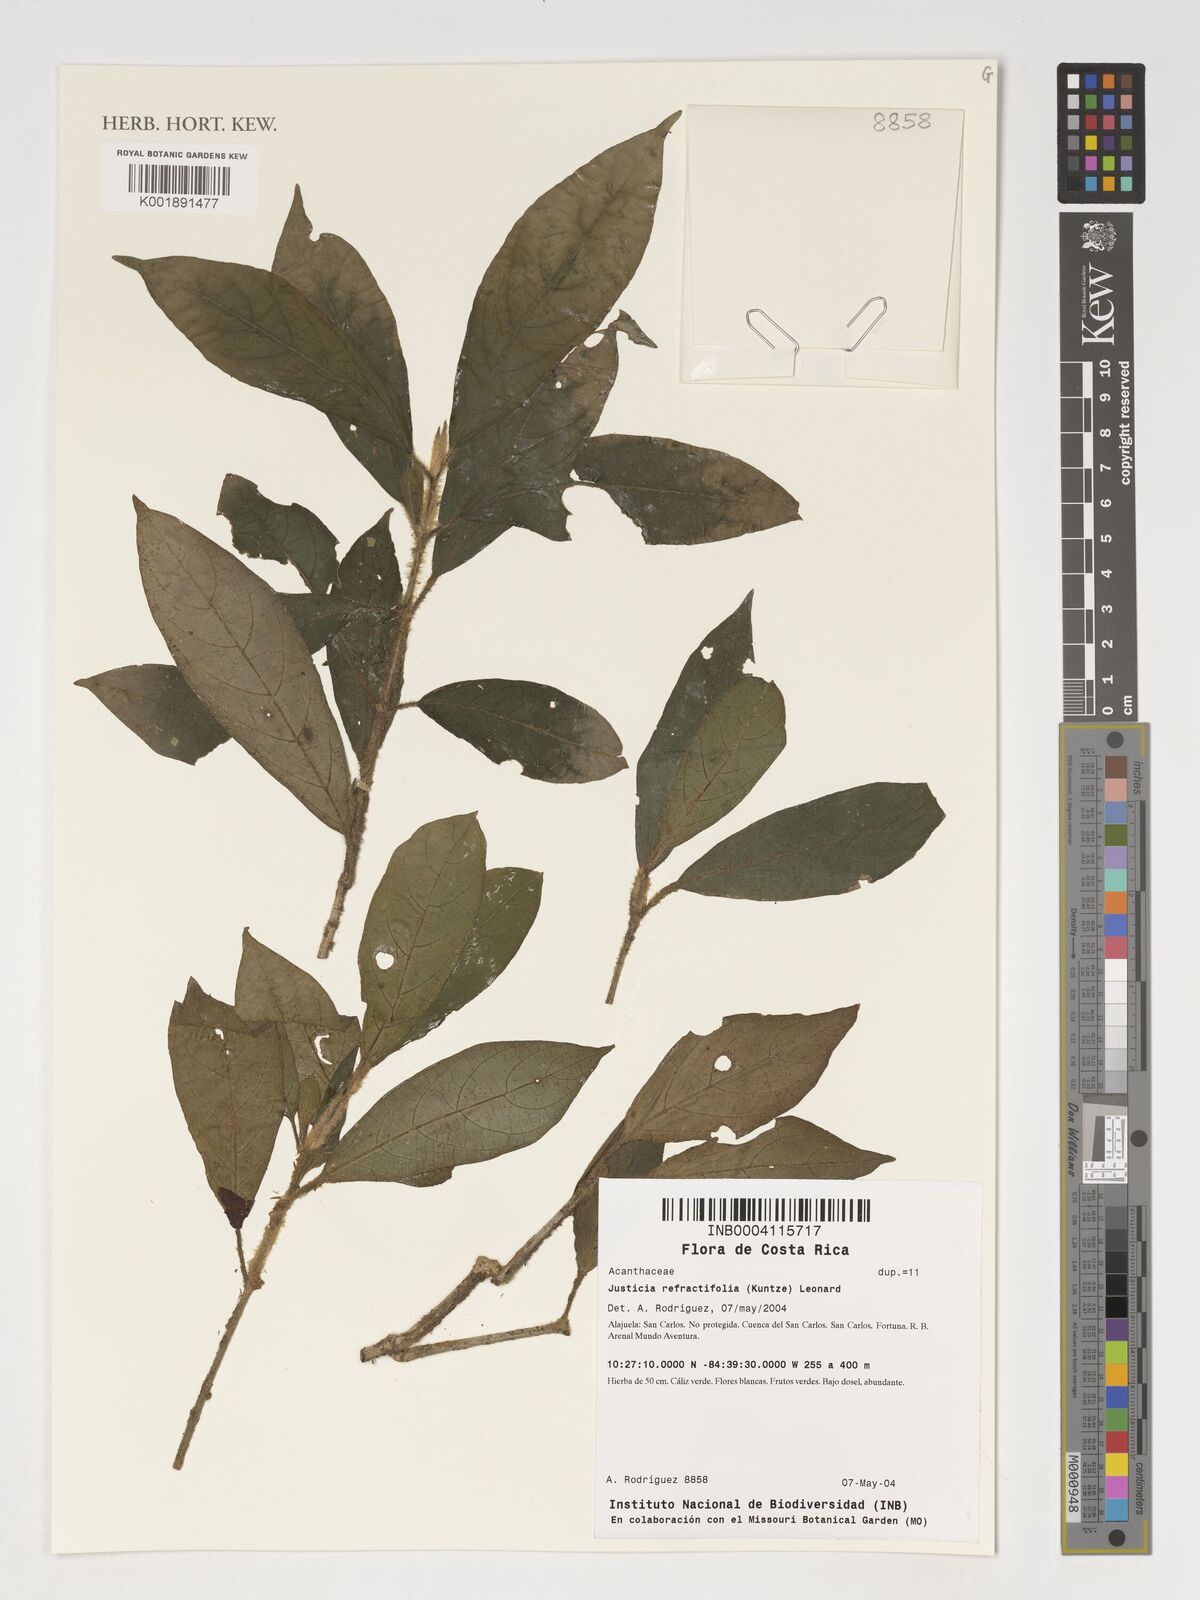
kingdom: Plantae
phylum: Tracheophyta
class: Magnoliopsida
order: Lamiales
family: Acanthaceae
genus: Justicia
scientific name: Justicia refractifolia
